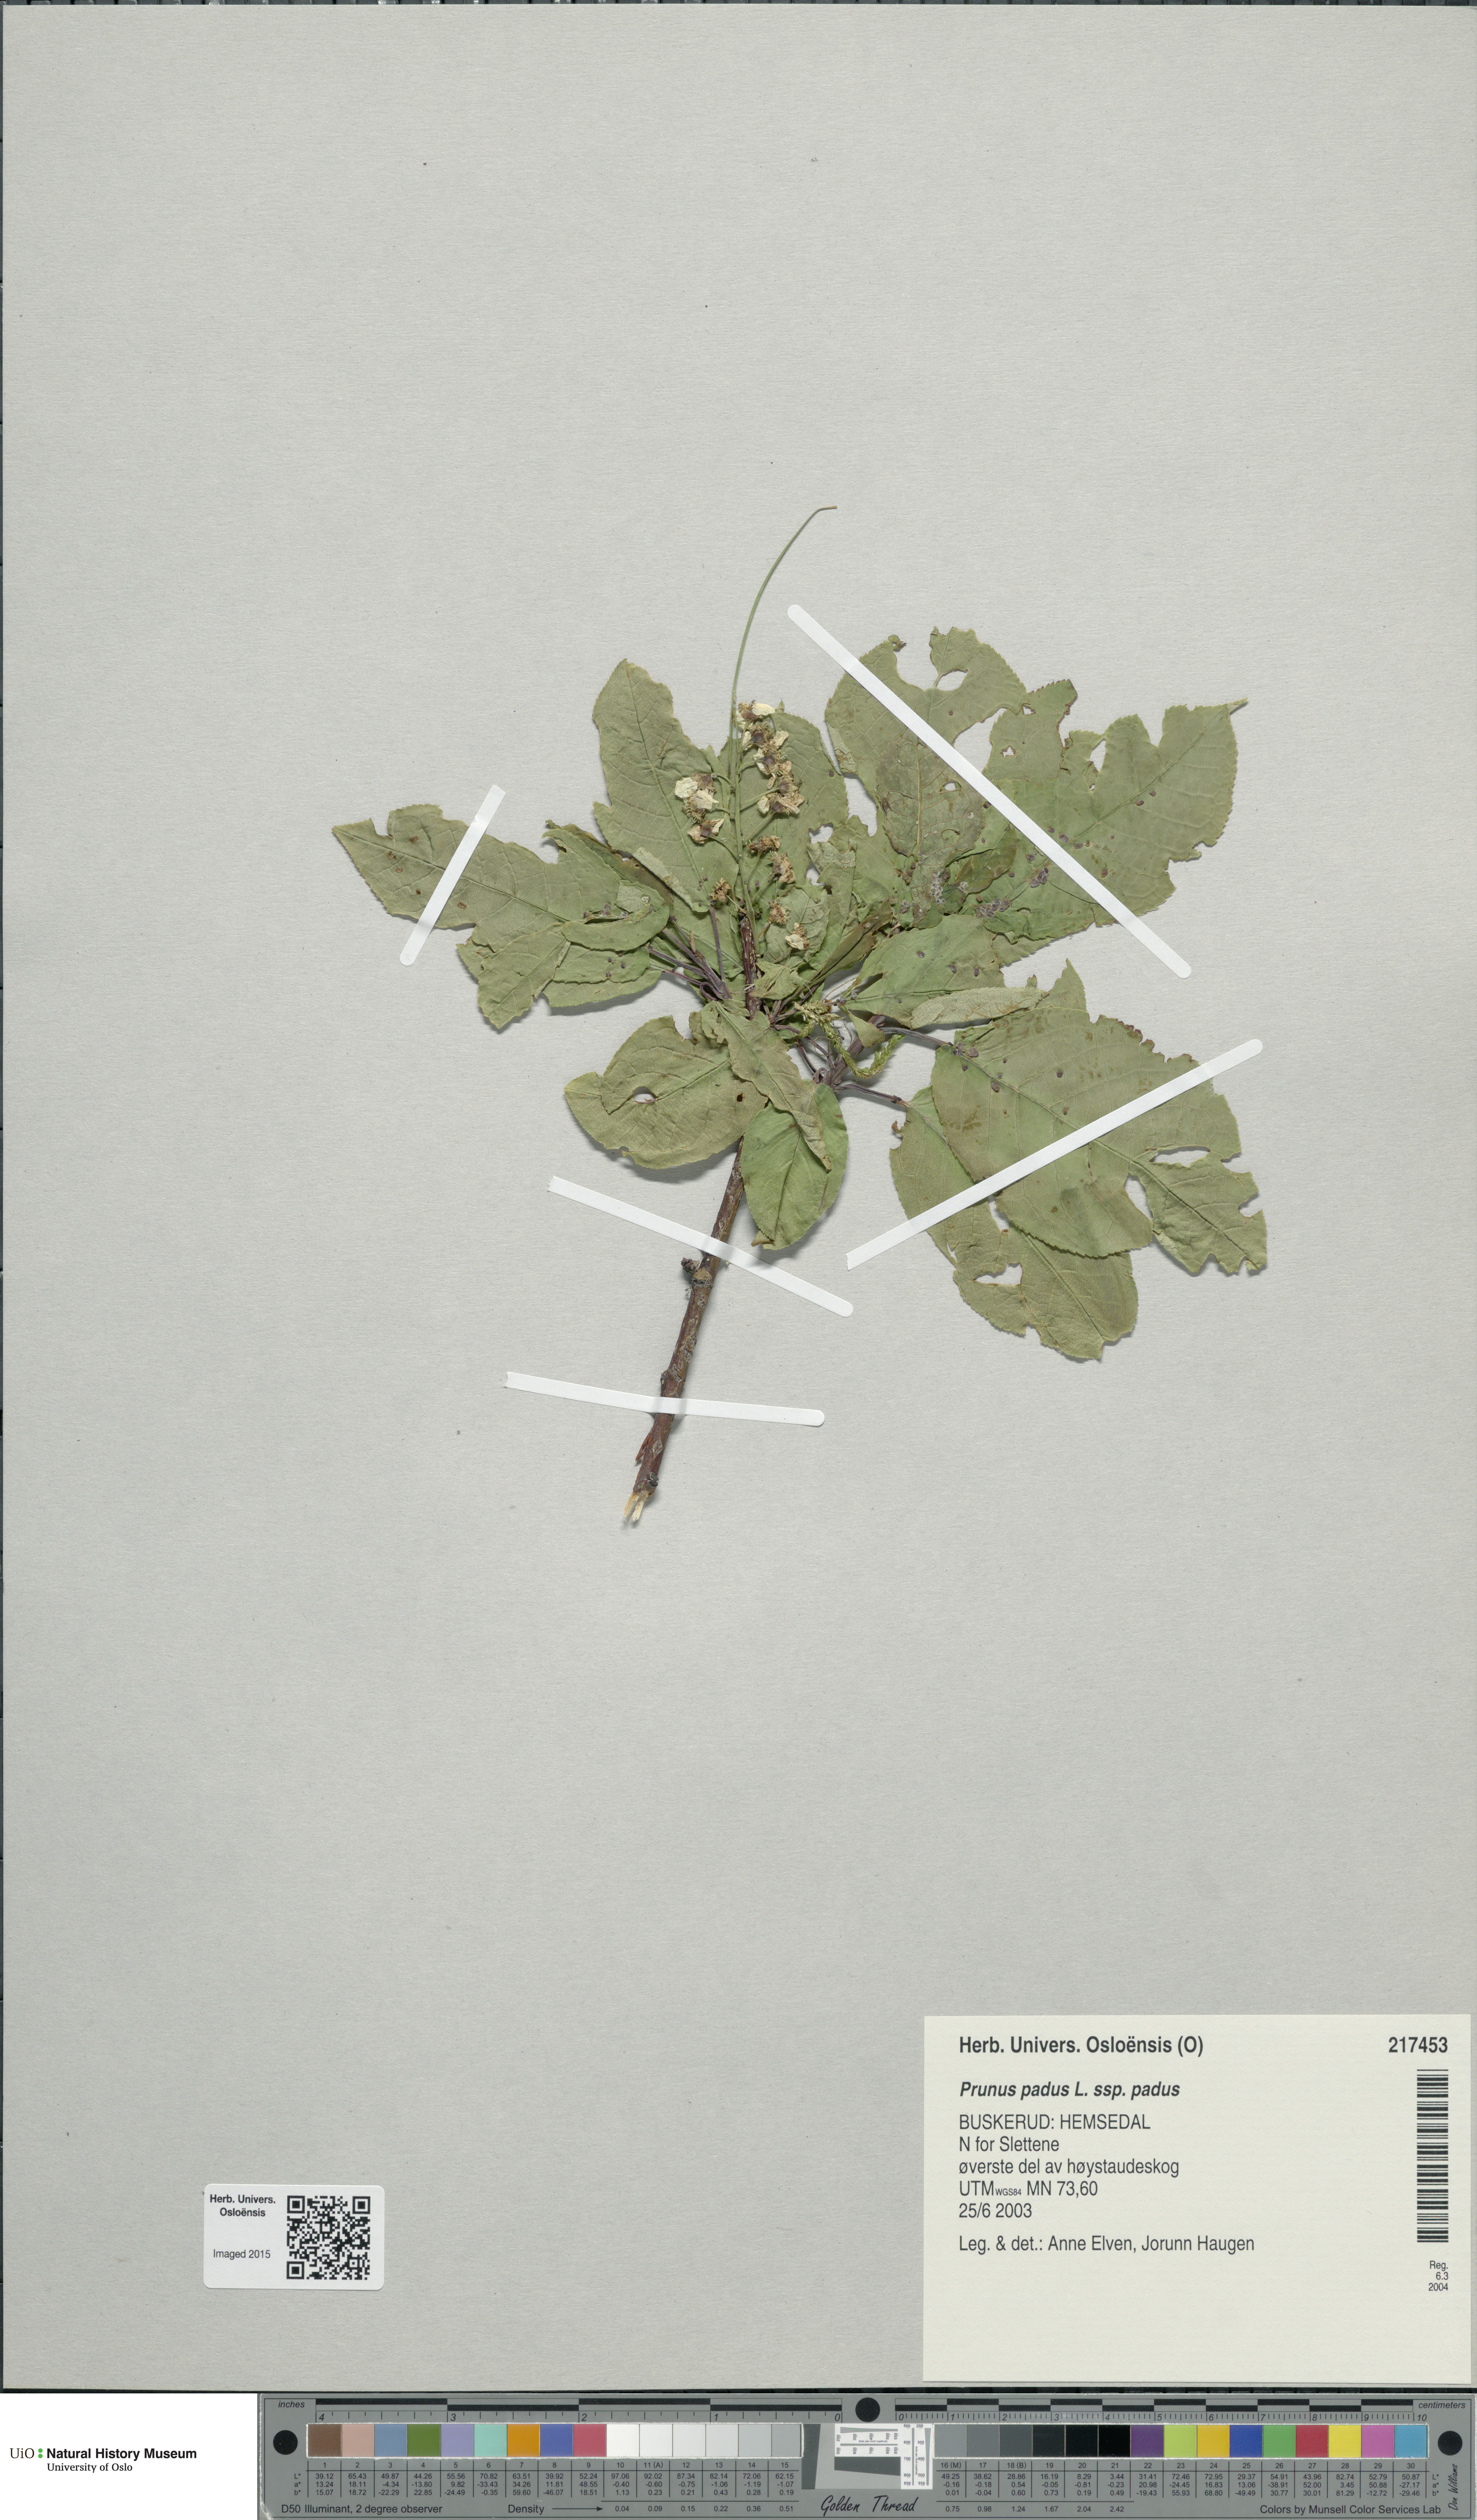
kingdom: Plantae
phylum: Tracheophyta
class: Magnoliopsida
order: Rosales
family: Rosaceae
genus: Prunus
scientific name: Prunus padus
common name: Bird cherry
